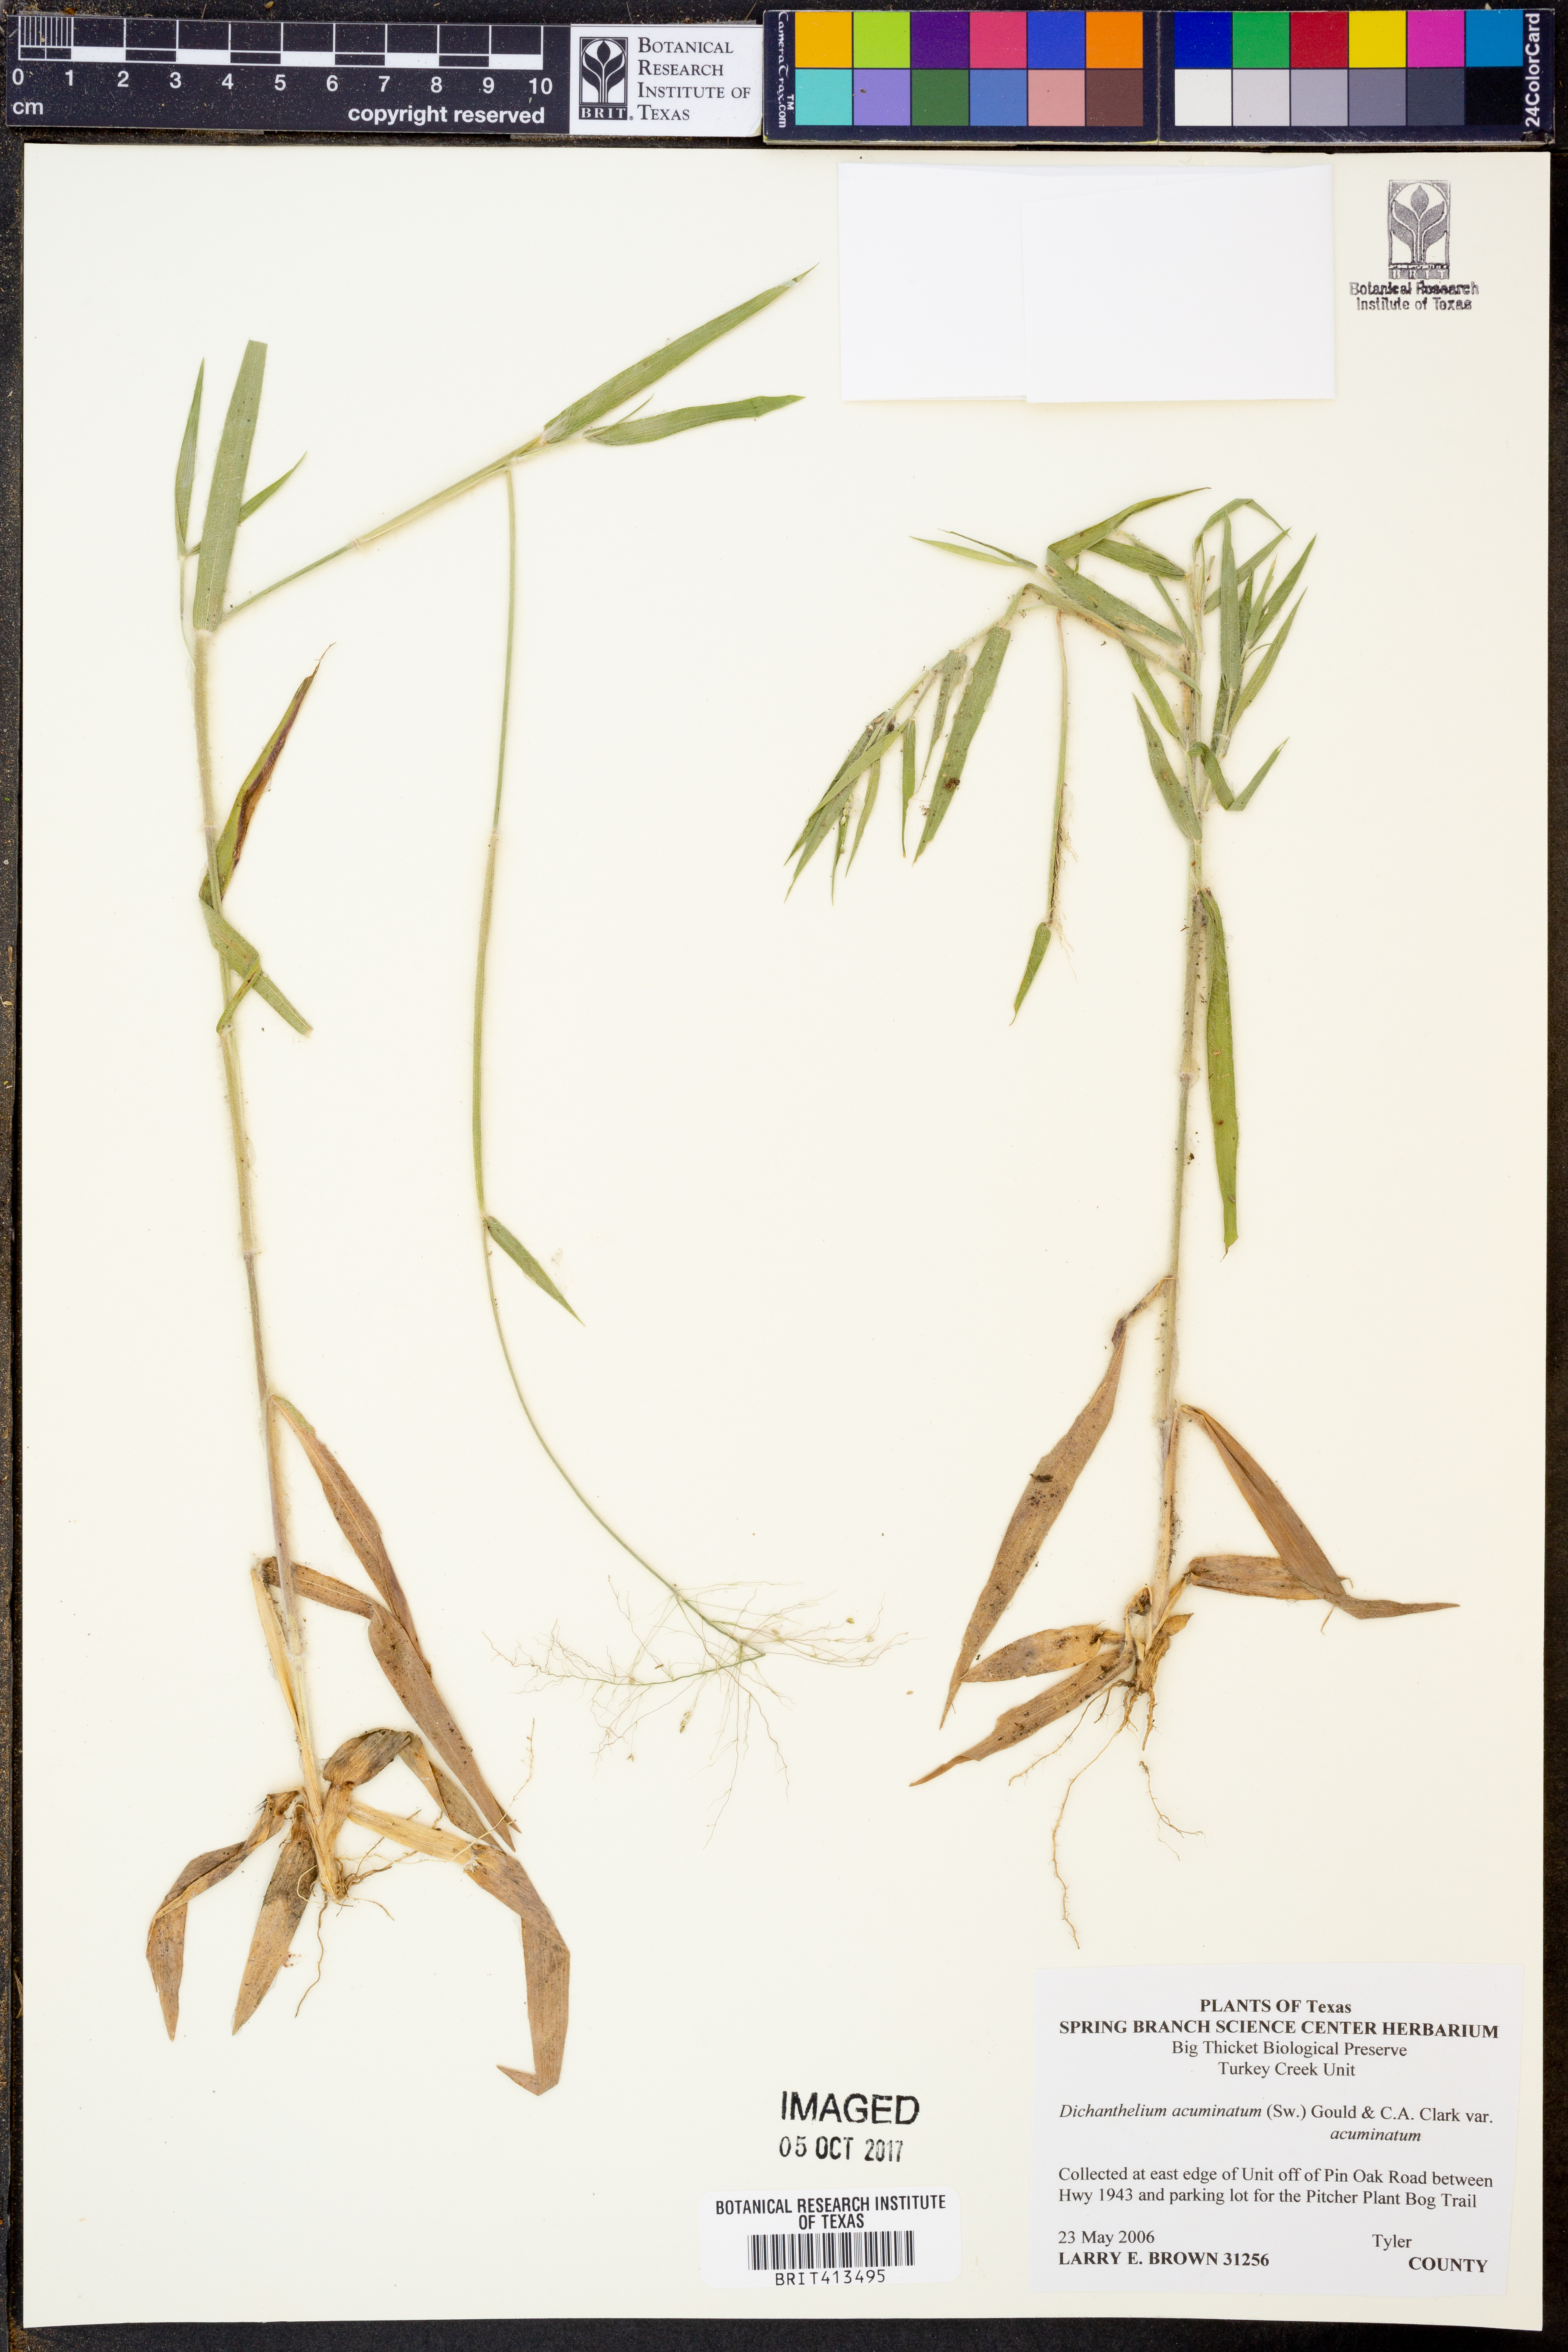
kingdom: Plantae
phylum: Tracheophyta
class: Liliopsida
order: Poales
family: Poaceae
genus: Dichanthelium
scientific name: Dichanthelium acuminatum
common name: Hairy panic grass
